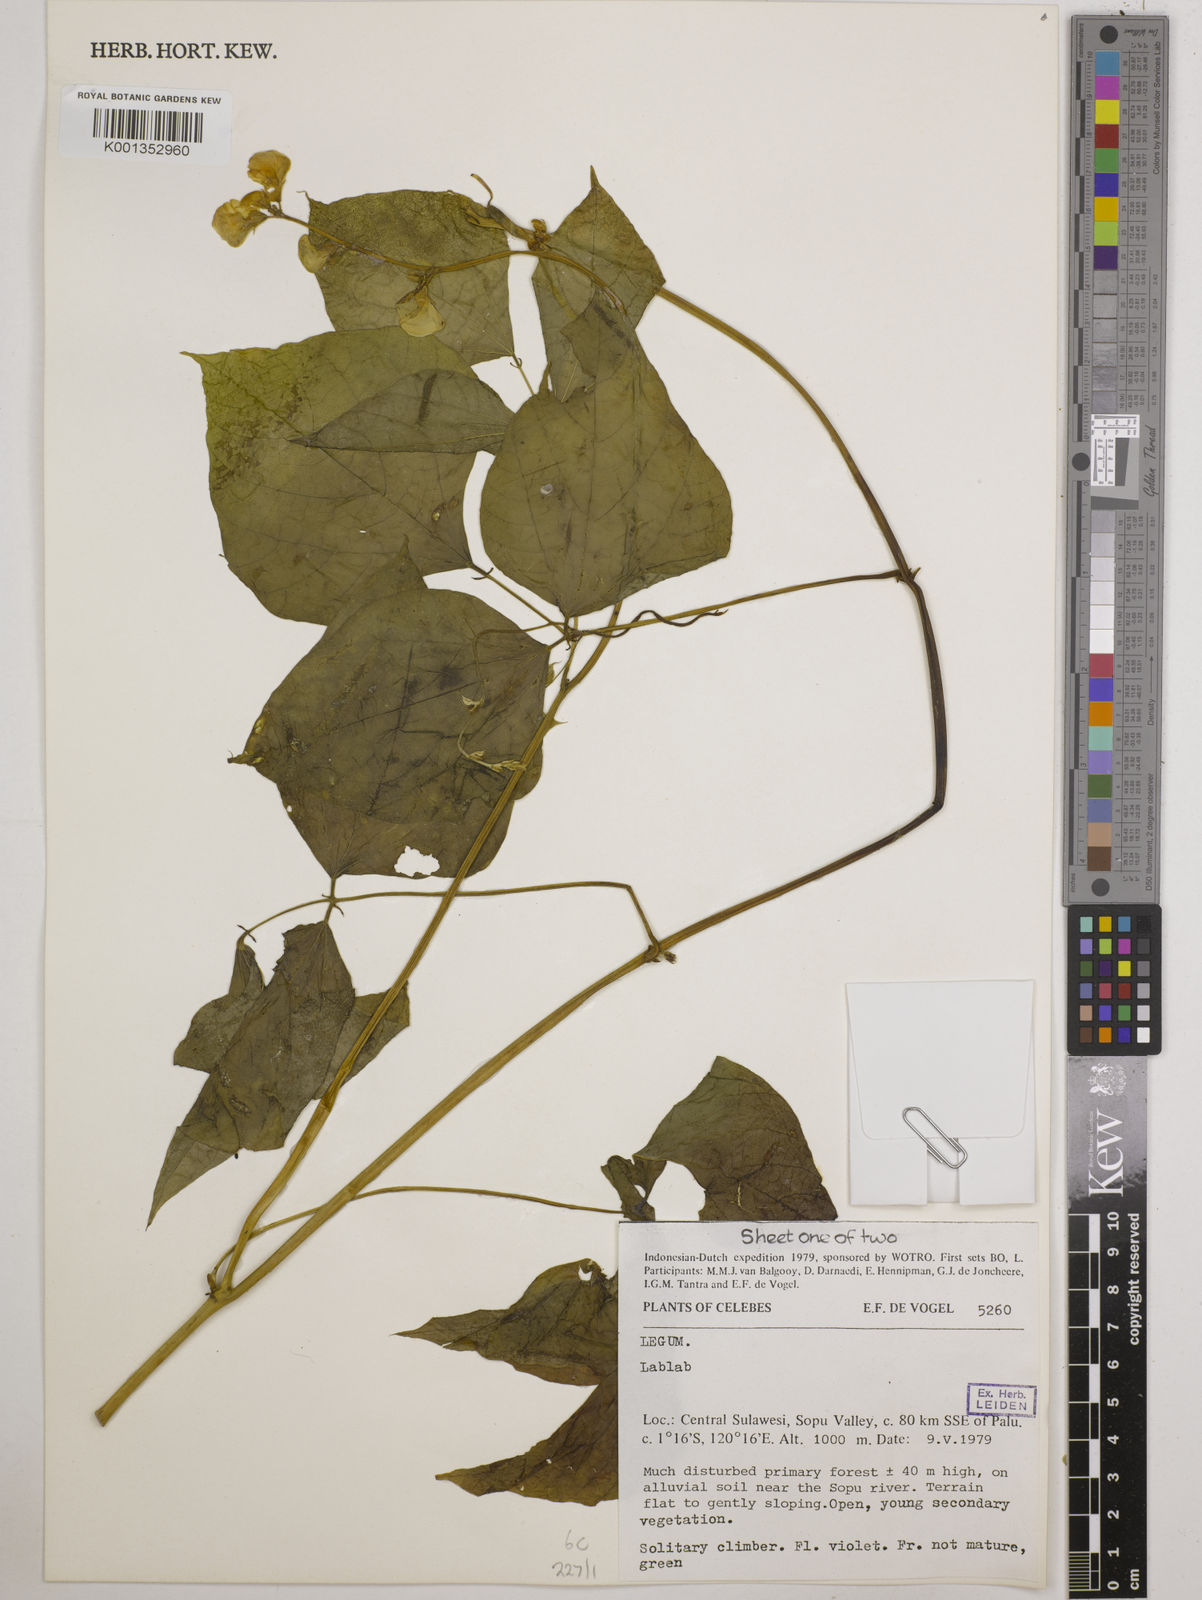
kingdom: Plantae
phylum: Tracheophyta
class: Magnoliopsida
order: Fabales
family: Fabaceae
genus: Lablab
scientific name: Lablab purpureus
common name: Lablab-bean
